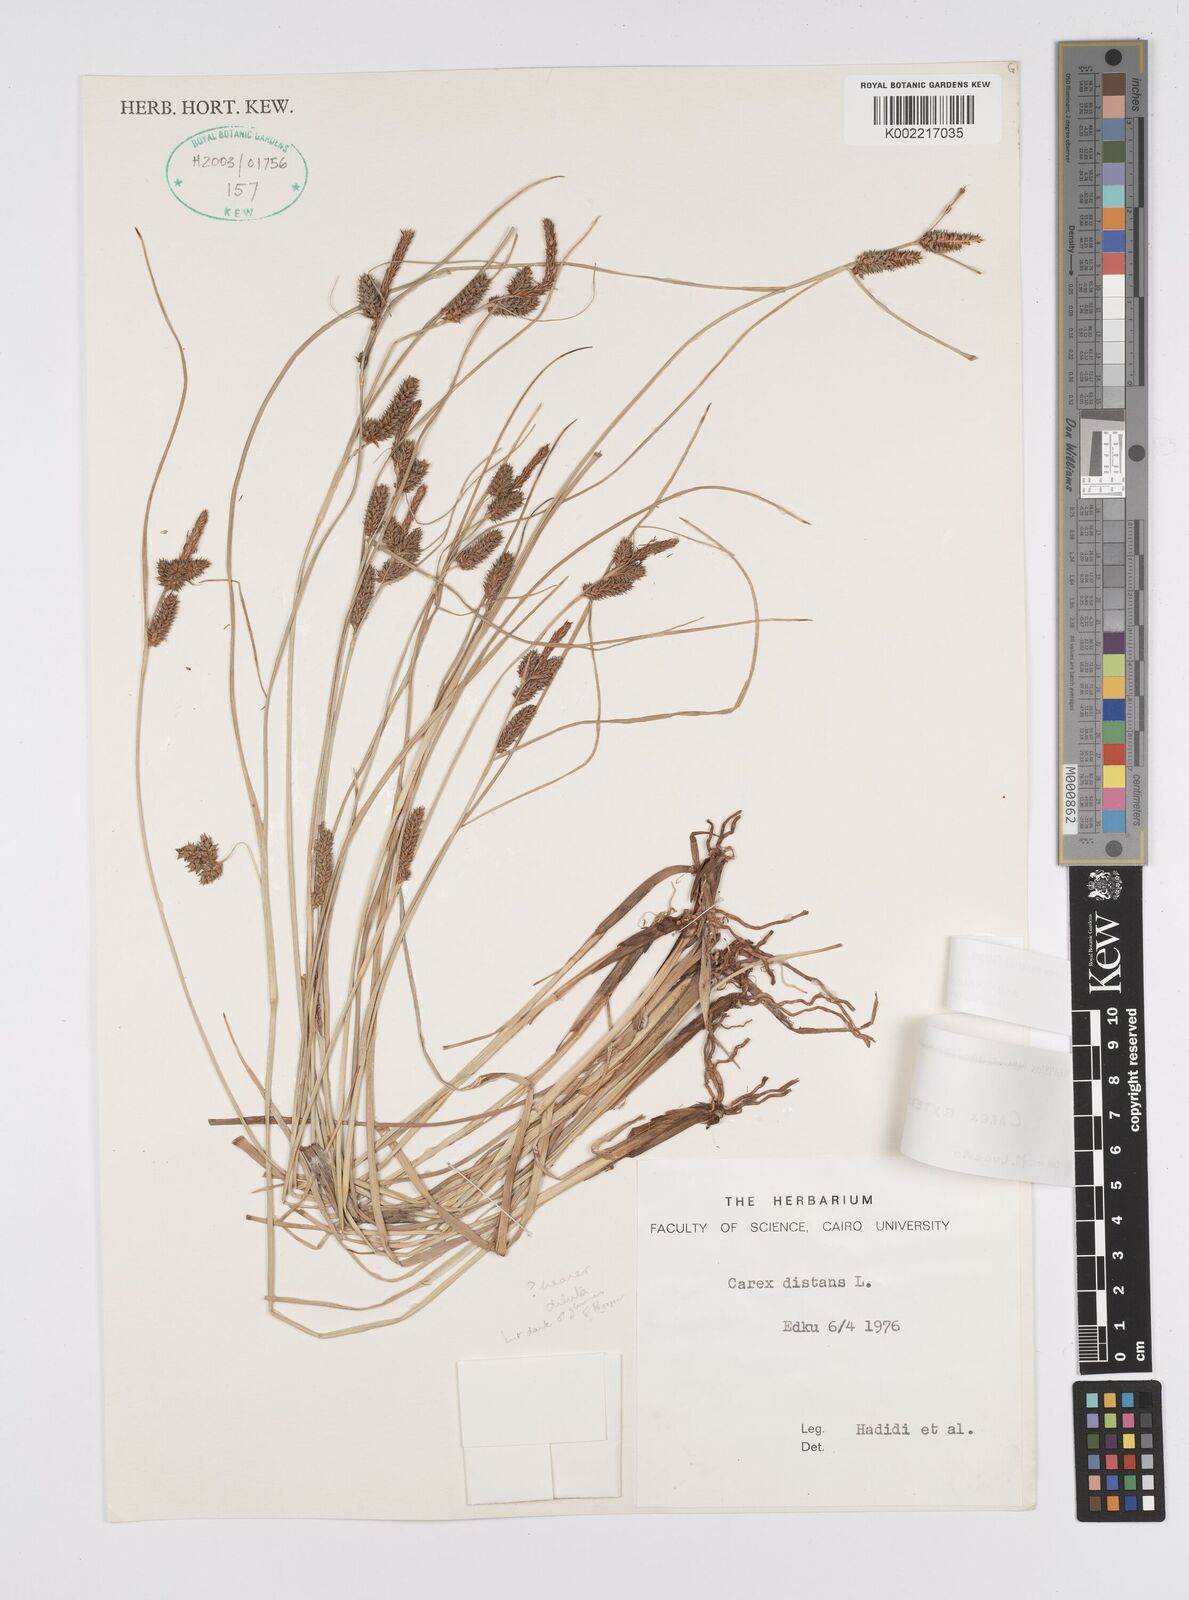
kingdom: Plantae
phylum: Tracheophyta
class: Liliopsida
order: Poales
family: Cyperaceae
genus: Carex
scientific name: Carex extensa
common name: Long-bracted sedge
